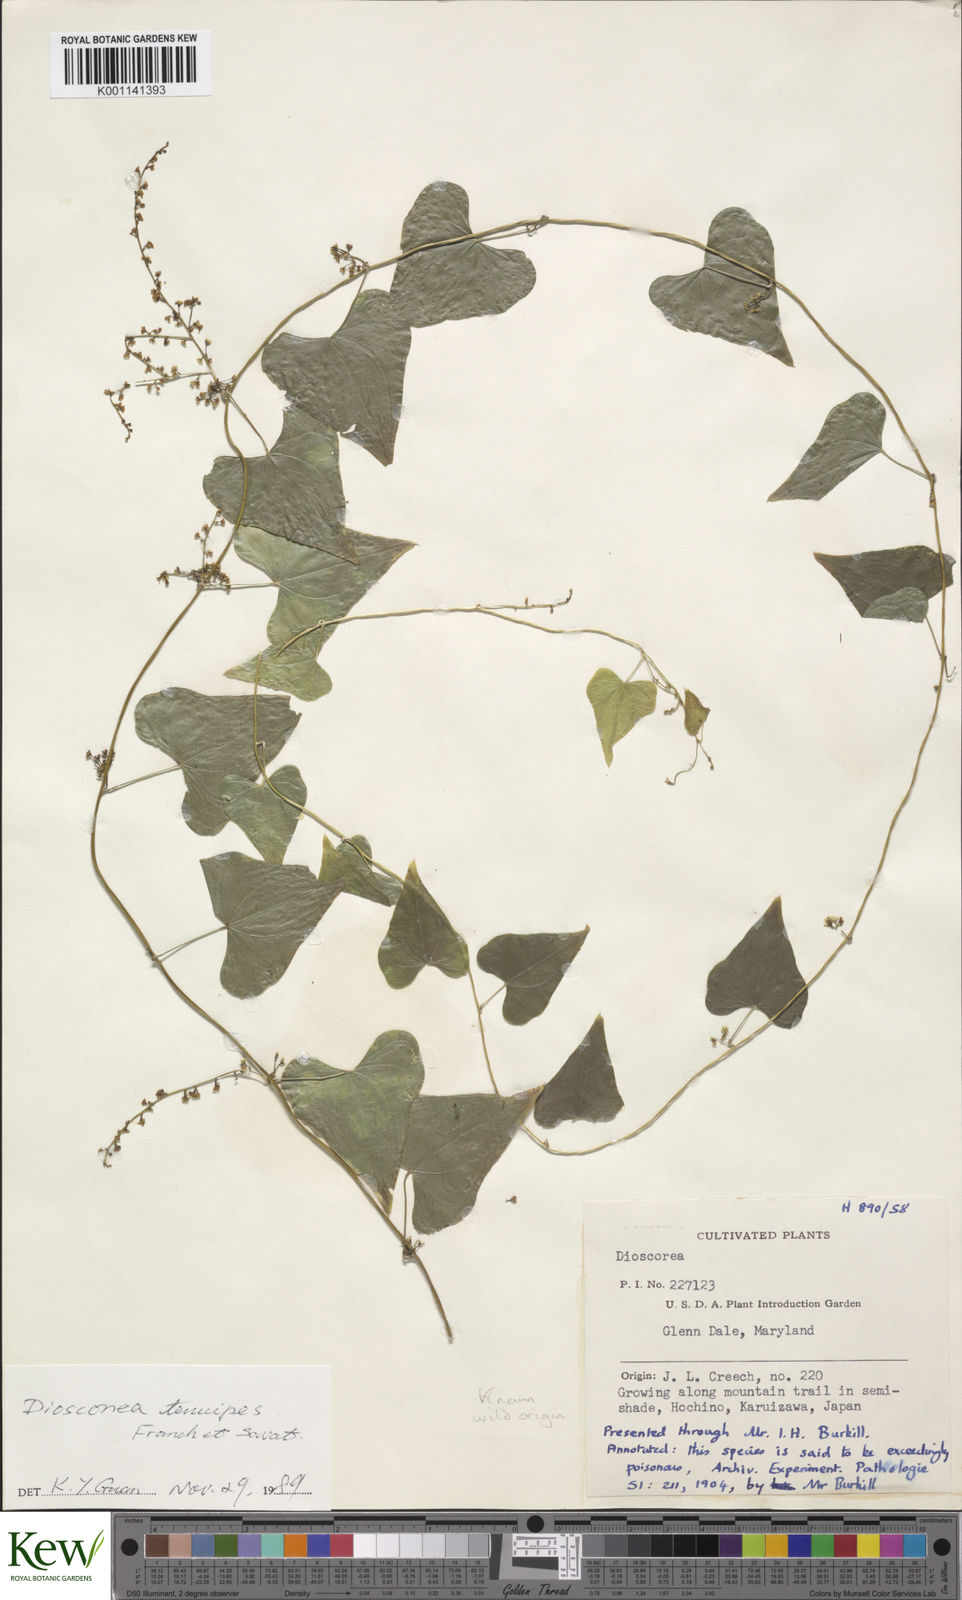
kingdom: Plantae
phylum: Tracheophyta
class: Liliopsida
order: Dioscoreales
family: Dioscoreaceae
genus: Dioscorea
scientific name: Dioscorea tenuipes
